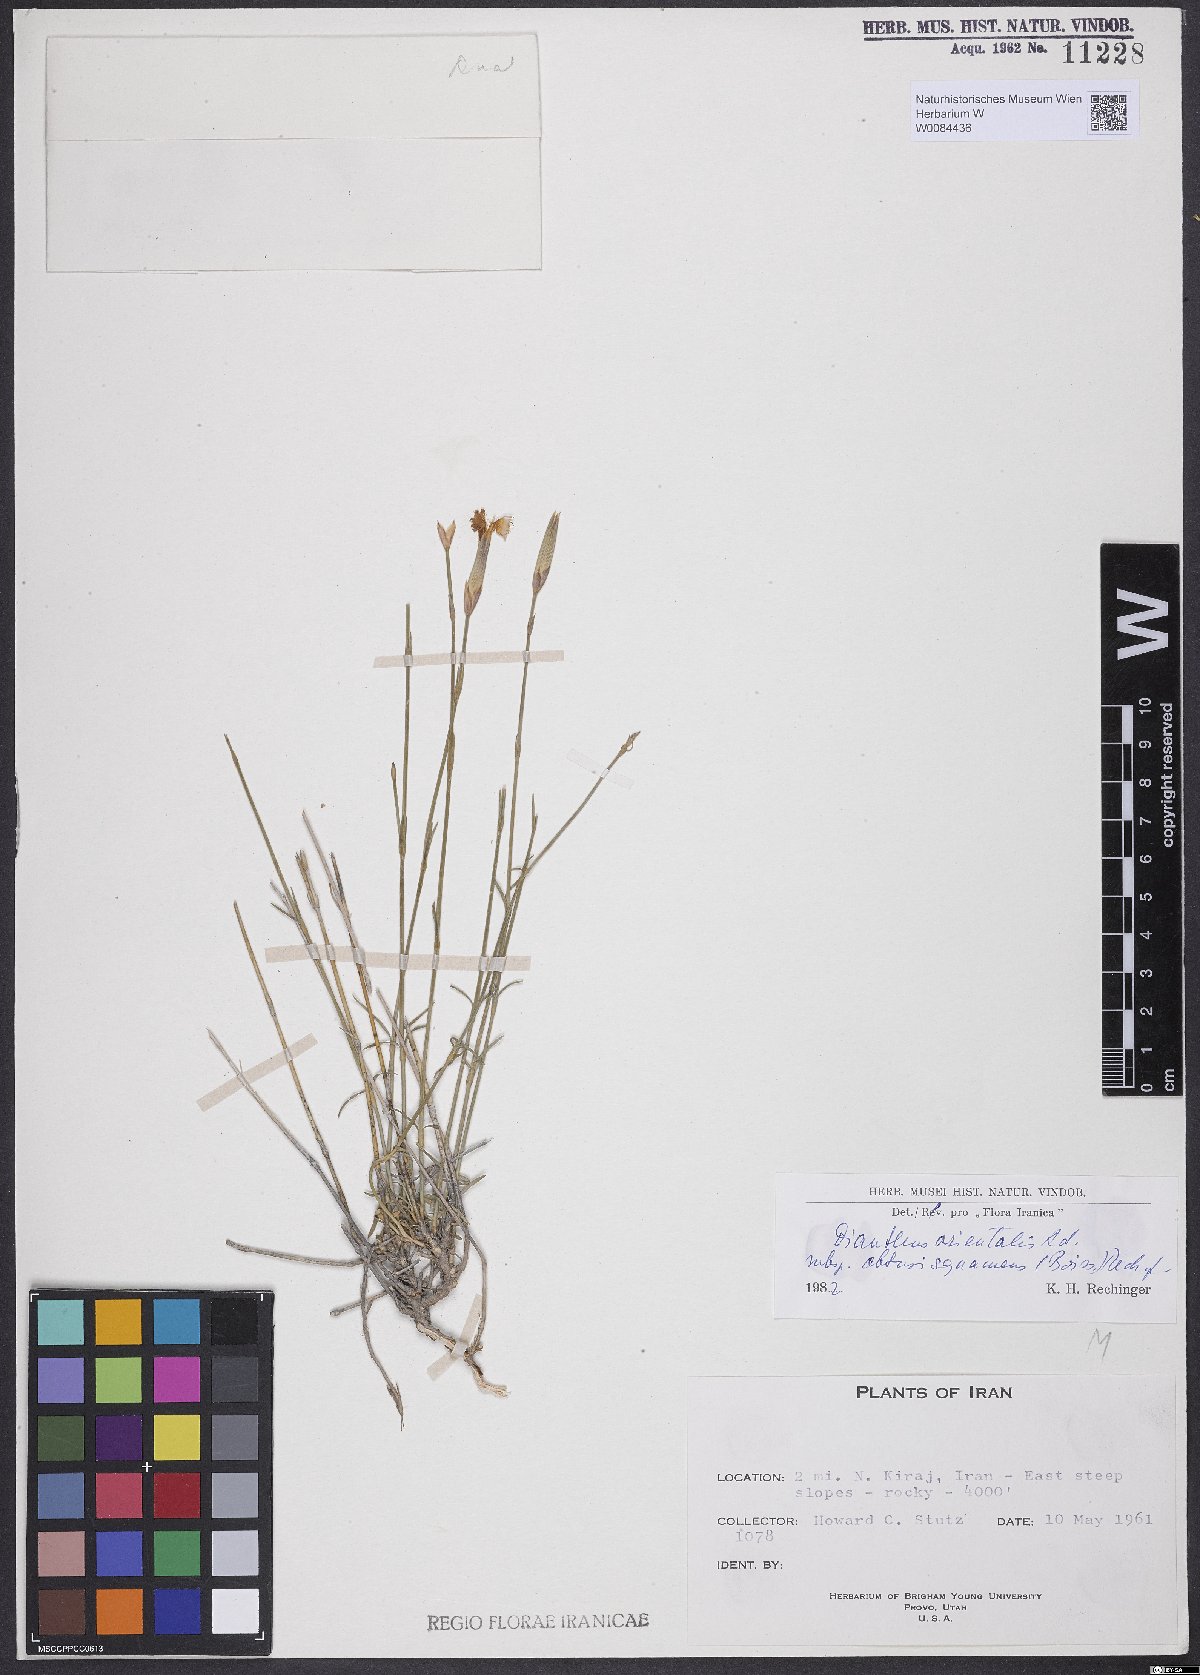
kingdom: Plantae
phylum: Tracheophyta
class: Magnoliopsida
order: Caryophyllales
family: Caryophyllaceae
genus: Dianthus
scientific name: Dianthus orientalis
